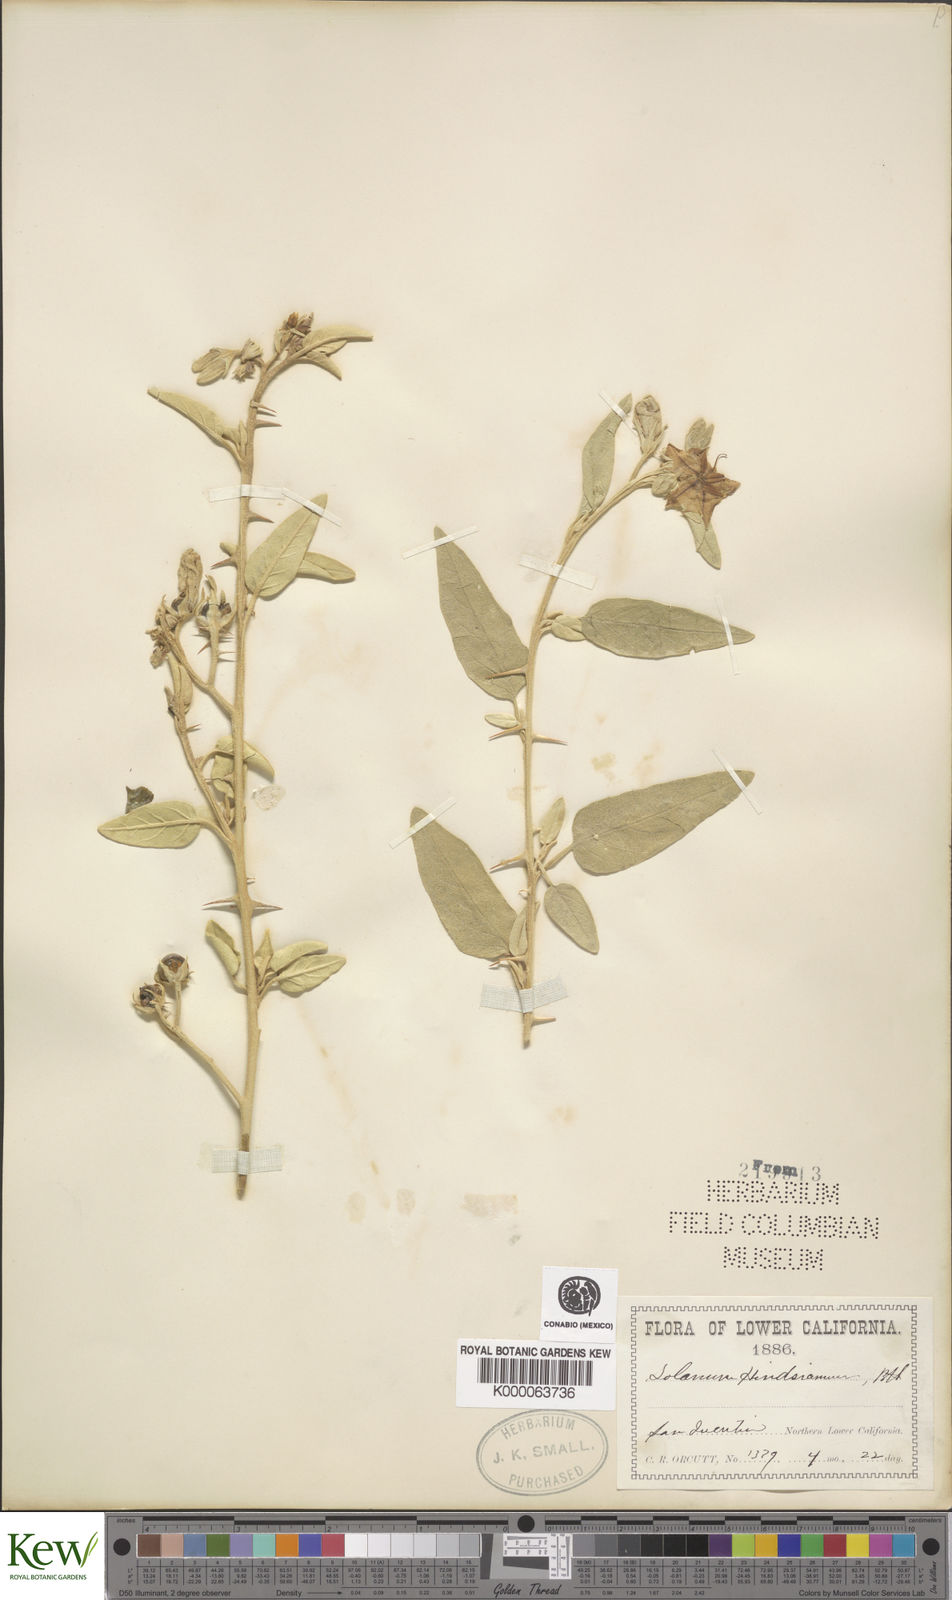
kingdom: Plantae
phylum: Tracheophyta
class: Magnoliopsida
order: Solanales
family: Solanaceae
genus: Solanum
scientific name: Solanum hindsianum
